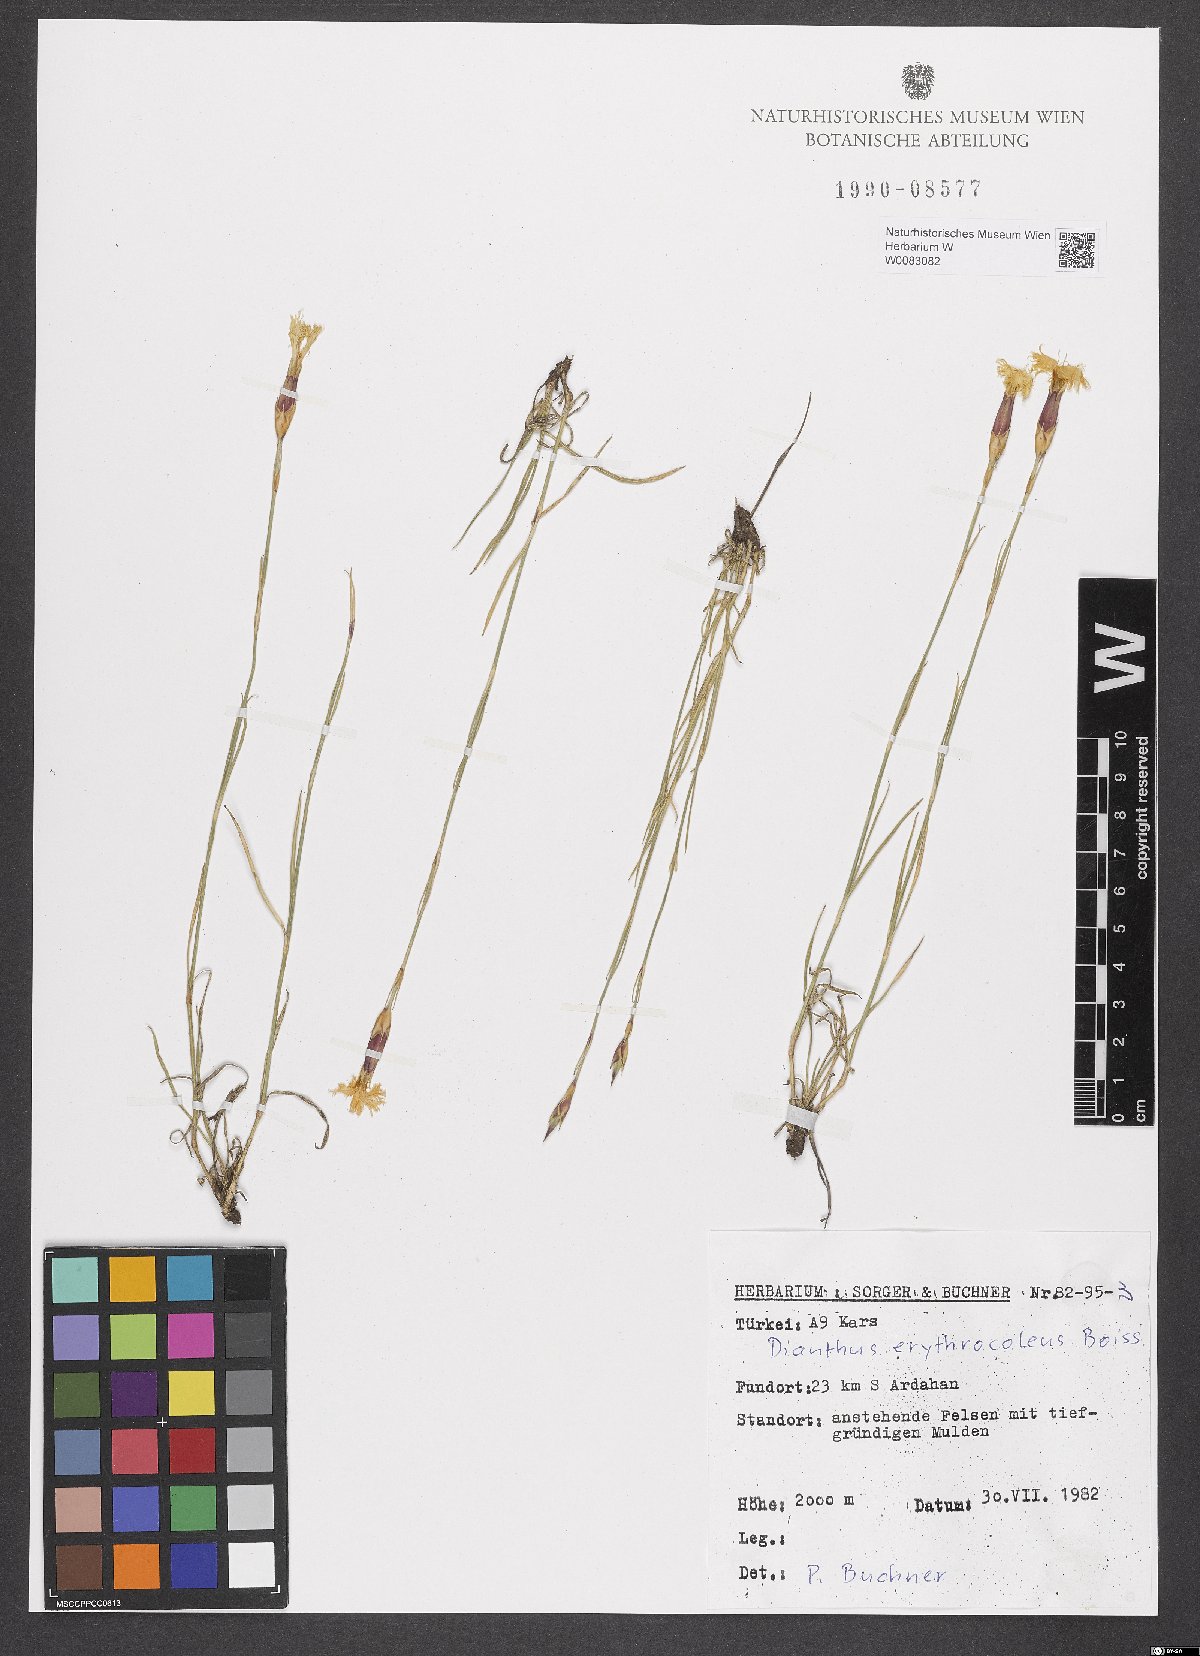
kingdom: Plantae
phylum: Tracheophyta
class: Magnoliopsida
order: Caryophyllales
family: Caryophyllaceae
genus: Dianthus
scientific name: Dianthus erythrocoleus
